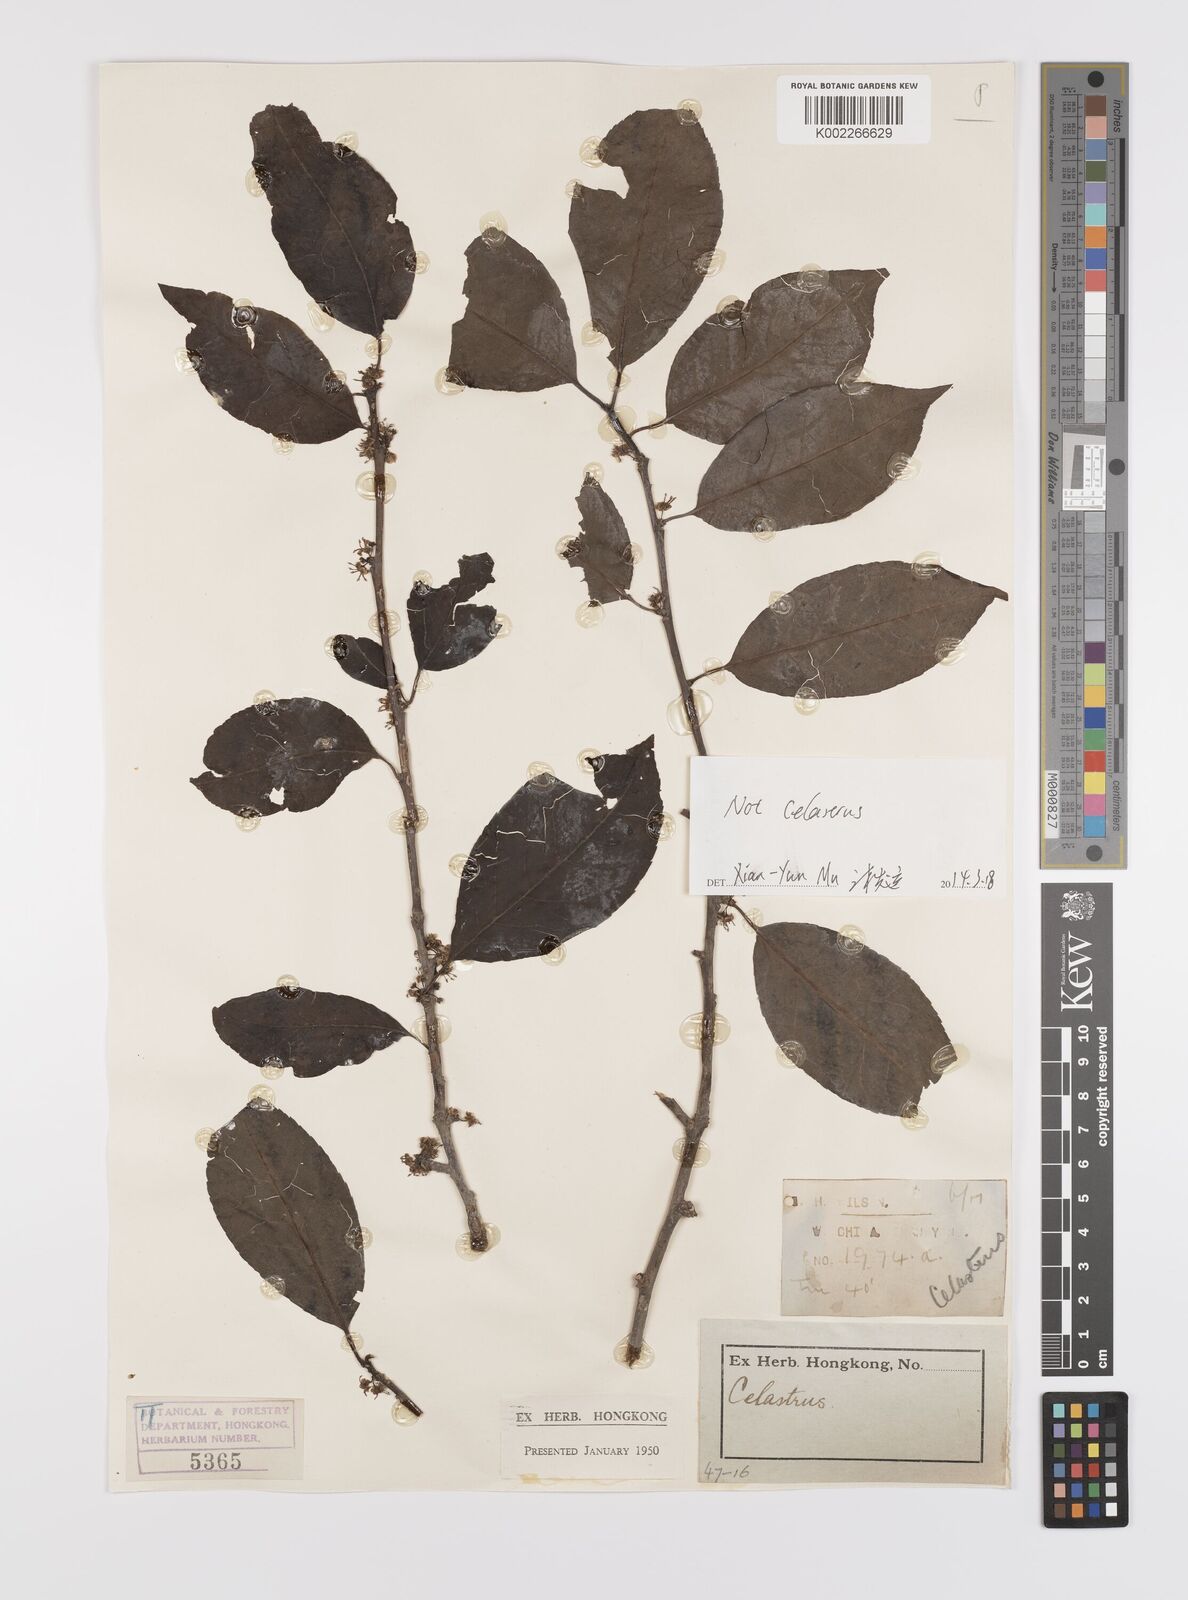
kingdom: Plantae
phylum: Tracheophyta
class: Magnoliopsida
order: Celastrales
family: Celastraceae
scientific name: Celastraceae
